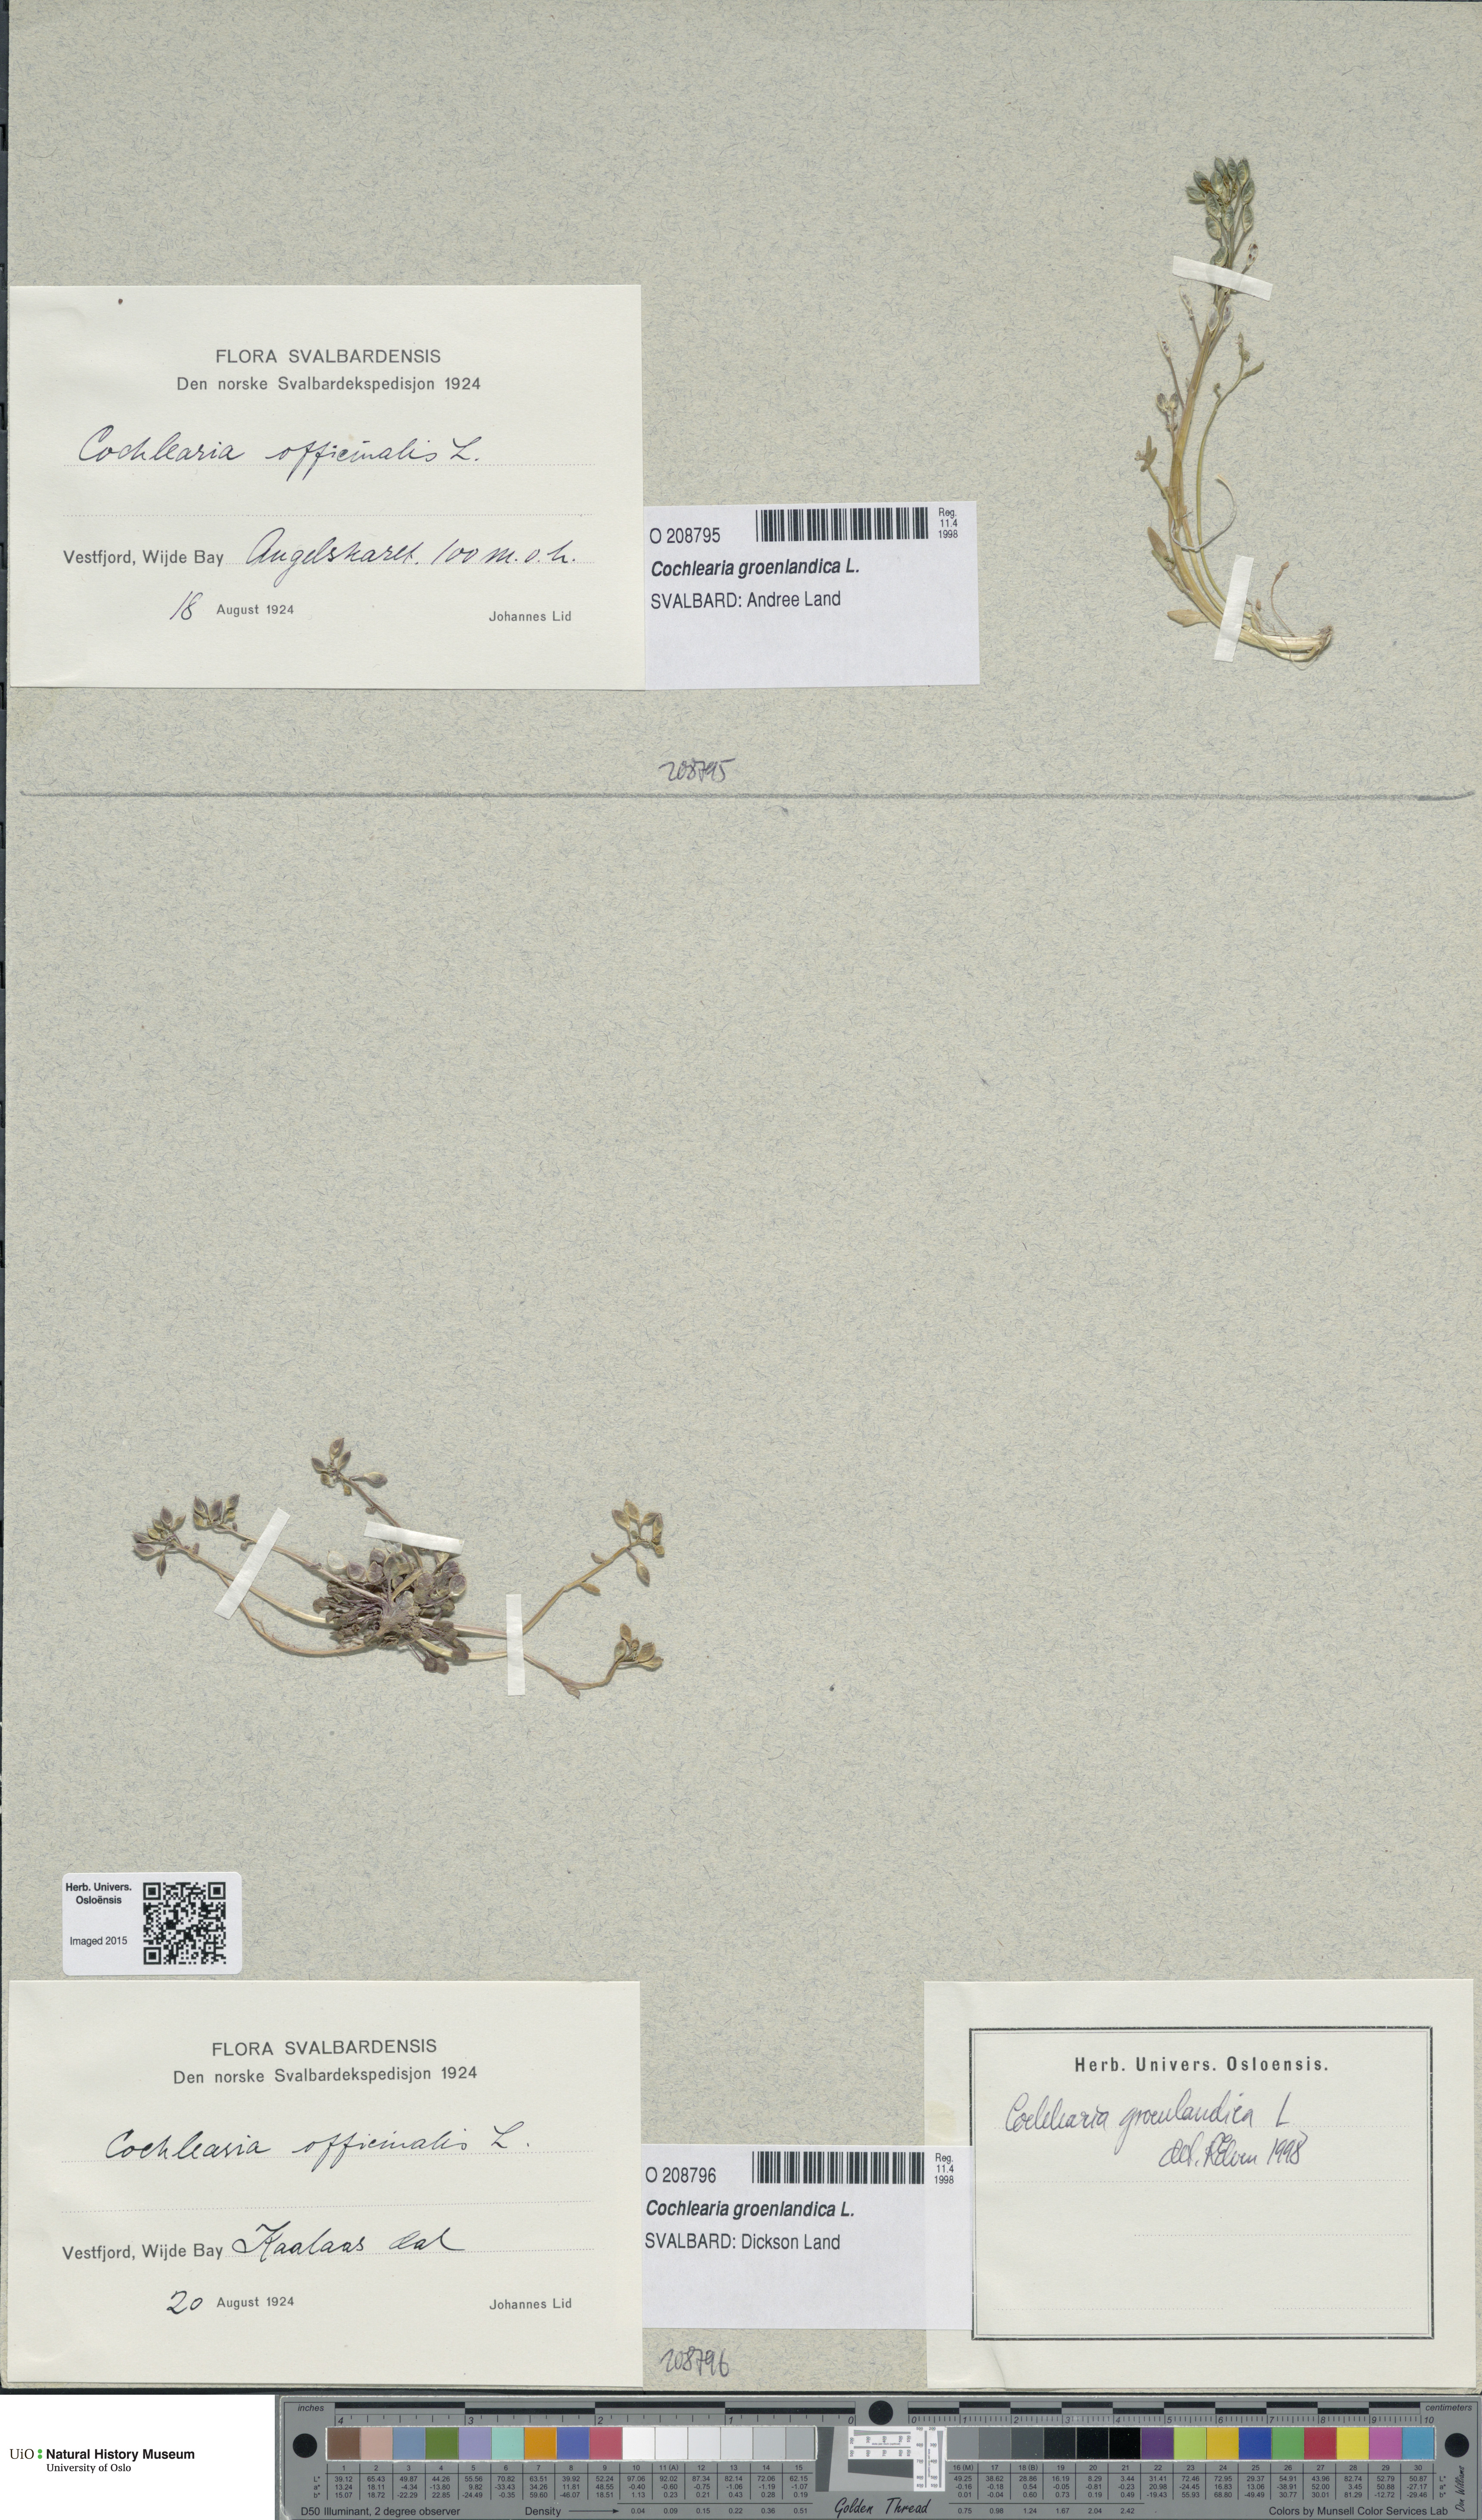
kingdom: Plantae
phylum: Tracheophyta
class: Magnoliopsida
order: Brassicales
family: Brassicaceae
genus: Cochlearia
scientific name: Cochlearia groenlandica
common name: Danish scurvygrass
